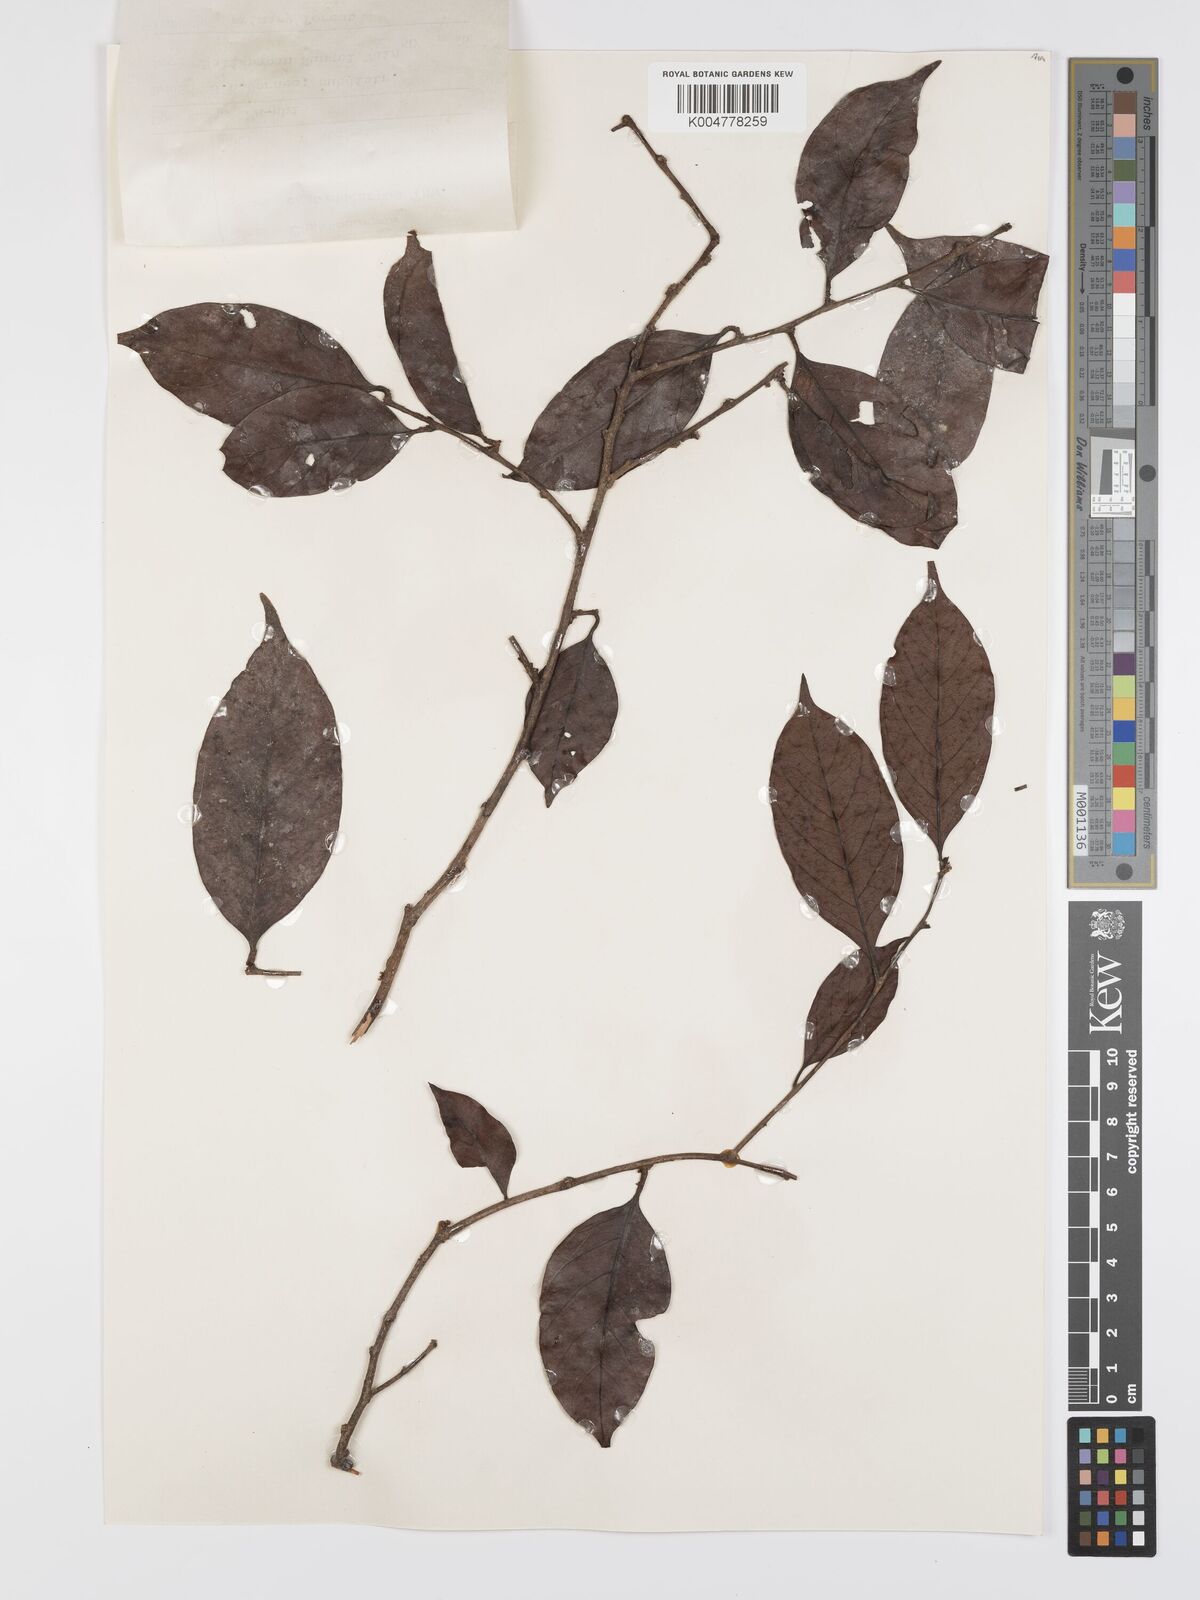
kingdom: Plantae
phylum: Tracheophyta
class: Magnoliopsida
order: Malpighiales
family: Peraceae
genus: Chaetocarpus
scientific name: Chaetocarpus castanocarpus
